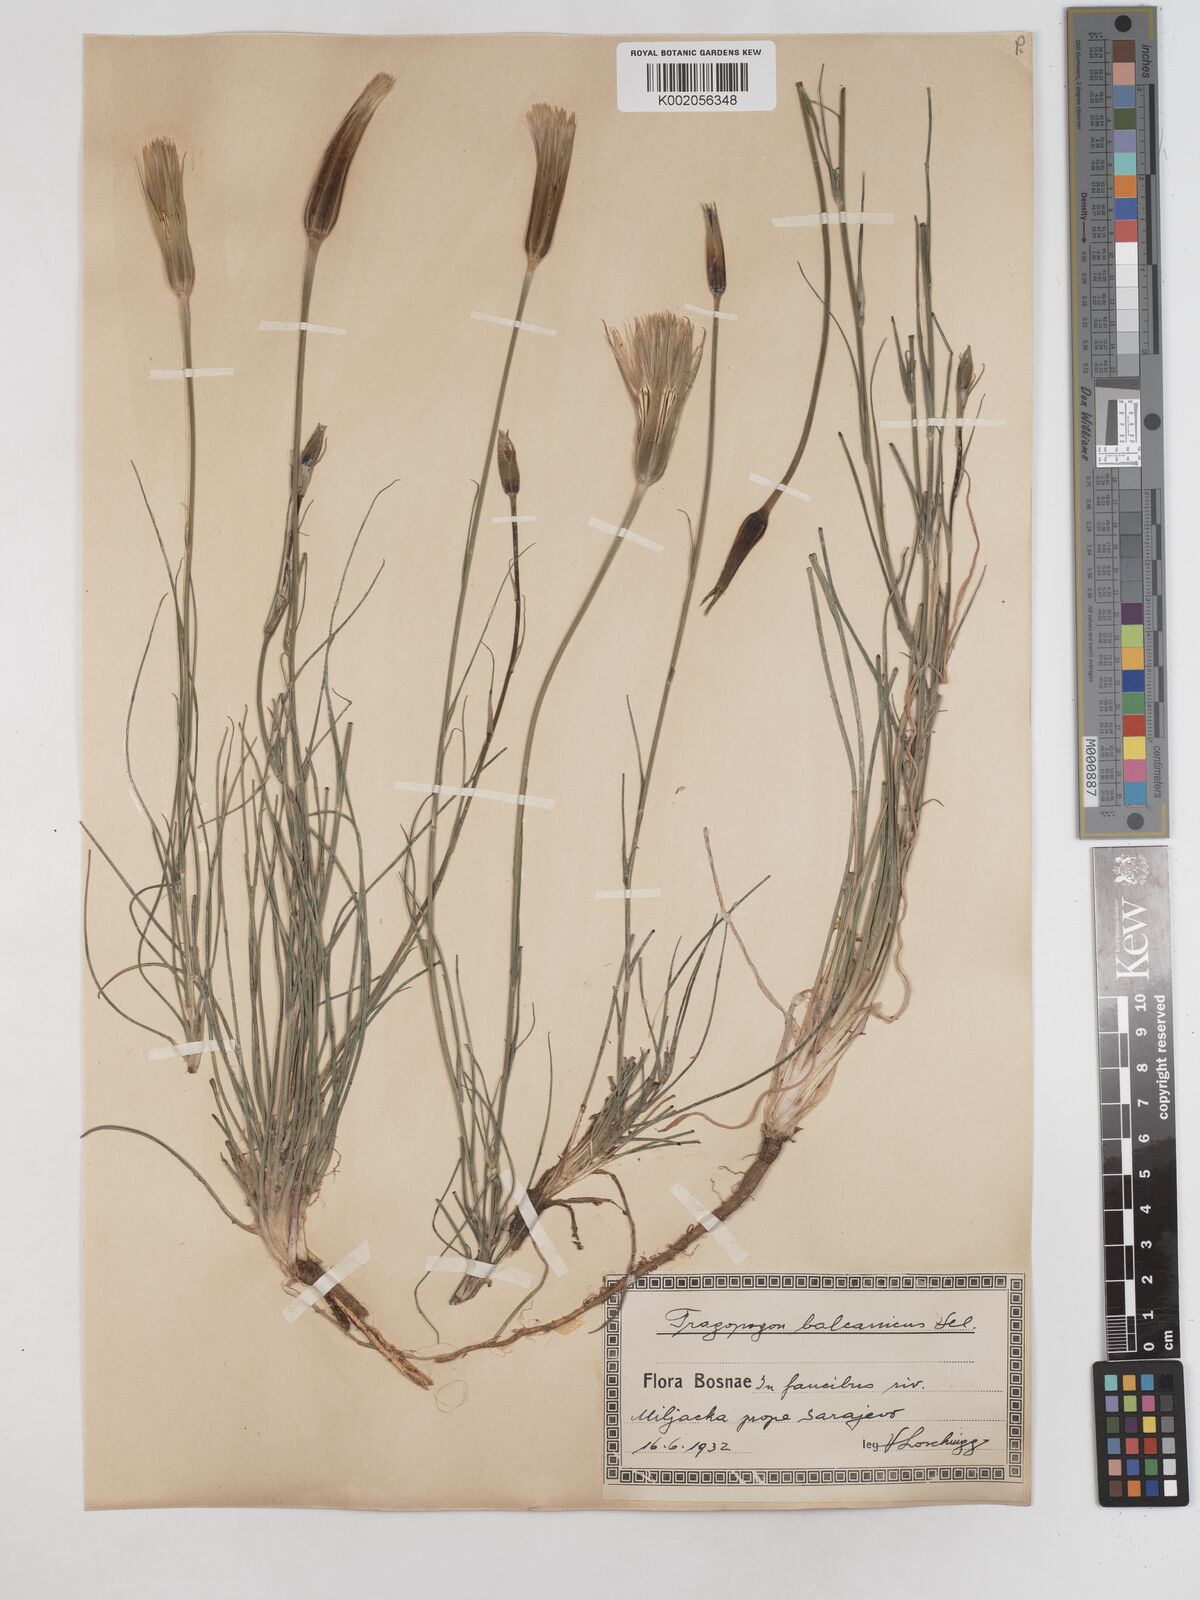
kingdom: Plantae
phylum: Tracheophyta
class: Magnoliopsida
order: Asterales
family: Asteraceae
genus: Tragopogon
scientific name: Tragopogon balcanicus
